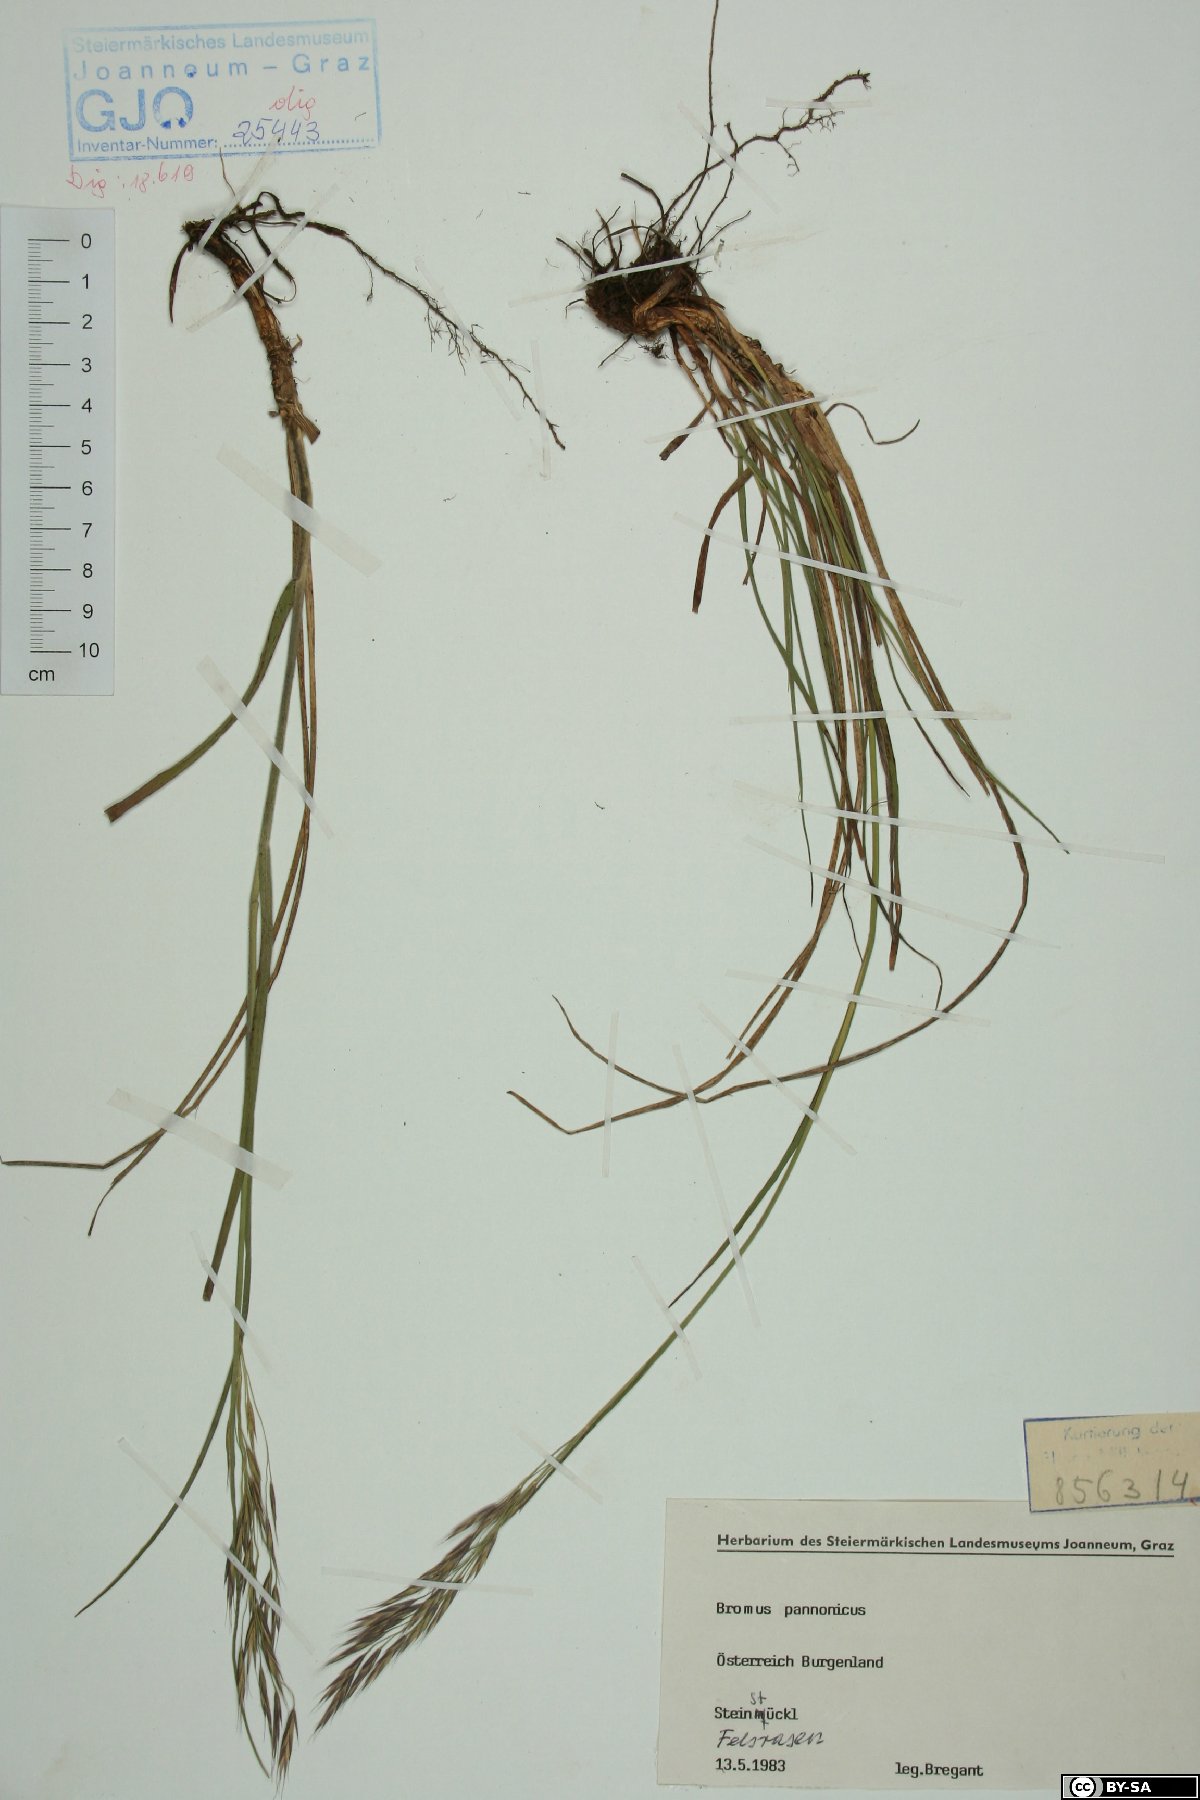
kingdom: Plantae
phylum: Tracheophyta
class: Liliopsida
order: Poales
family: Poaceae
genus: Bromus
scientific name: Bromus pannonicus
